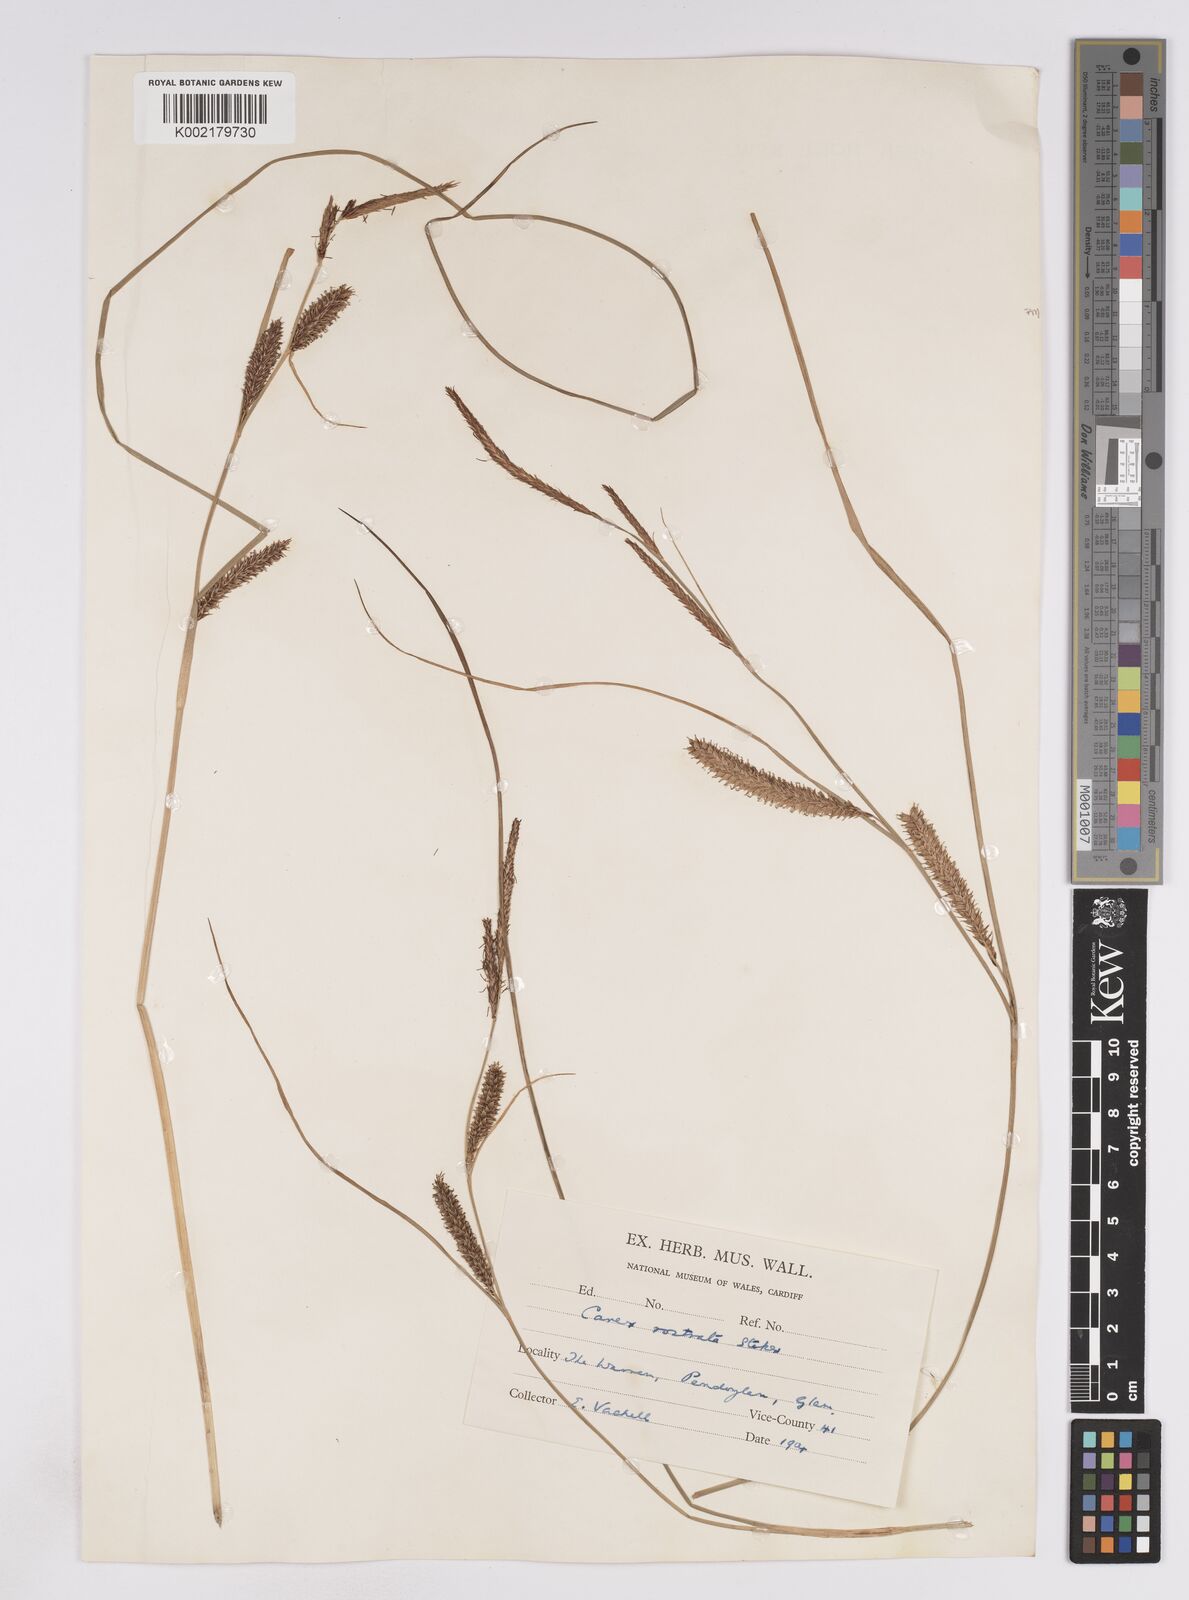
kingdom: Plantae
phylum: Tracheophyta
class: Liliopsida
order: Poales
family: Cyperaceae
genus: Carex
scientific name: Carex rostrata
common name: Bottle sedge
